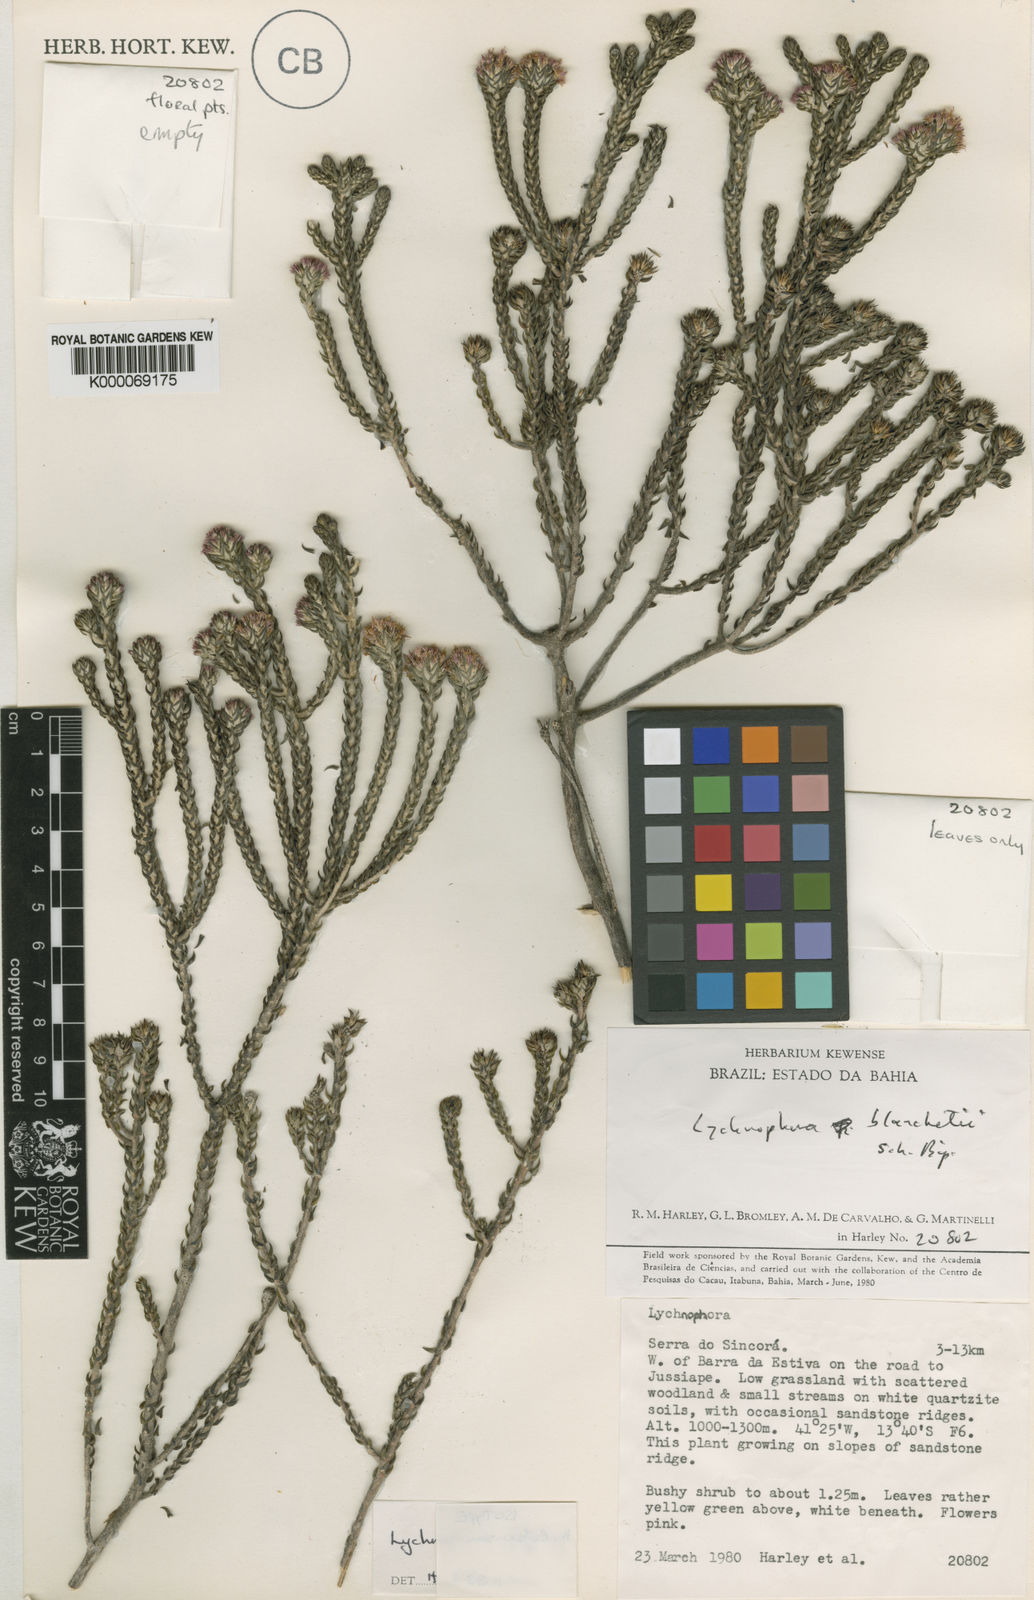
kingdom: Plantae
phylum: Tracheophyta
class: Magnoliopsida
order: Asterales
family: Asteraceae
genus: Lychnophora
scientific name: Lychnophora phylicifolia
